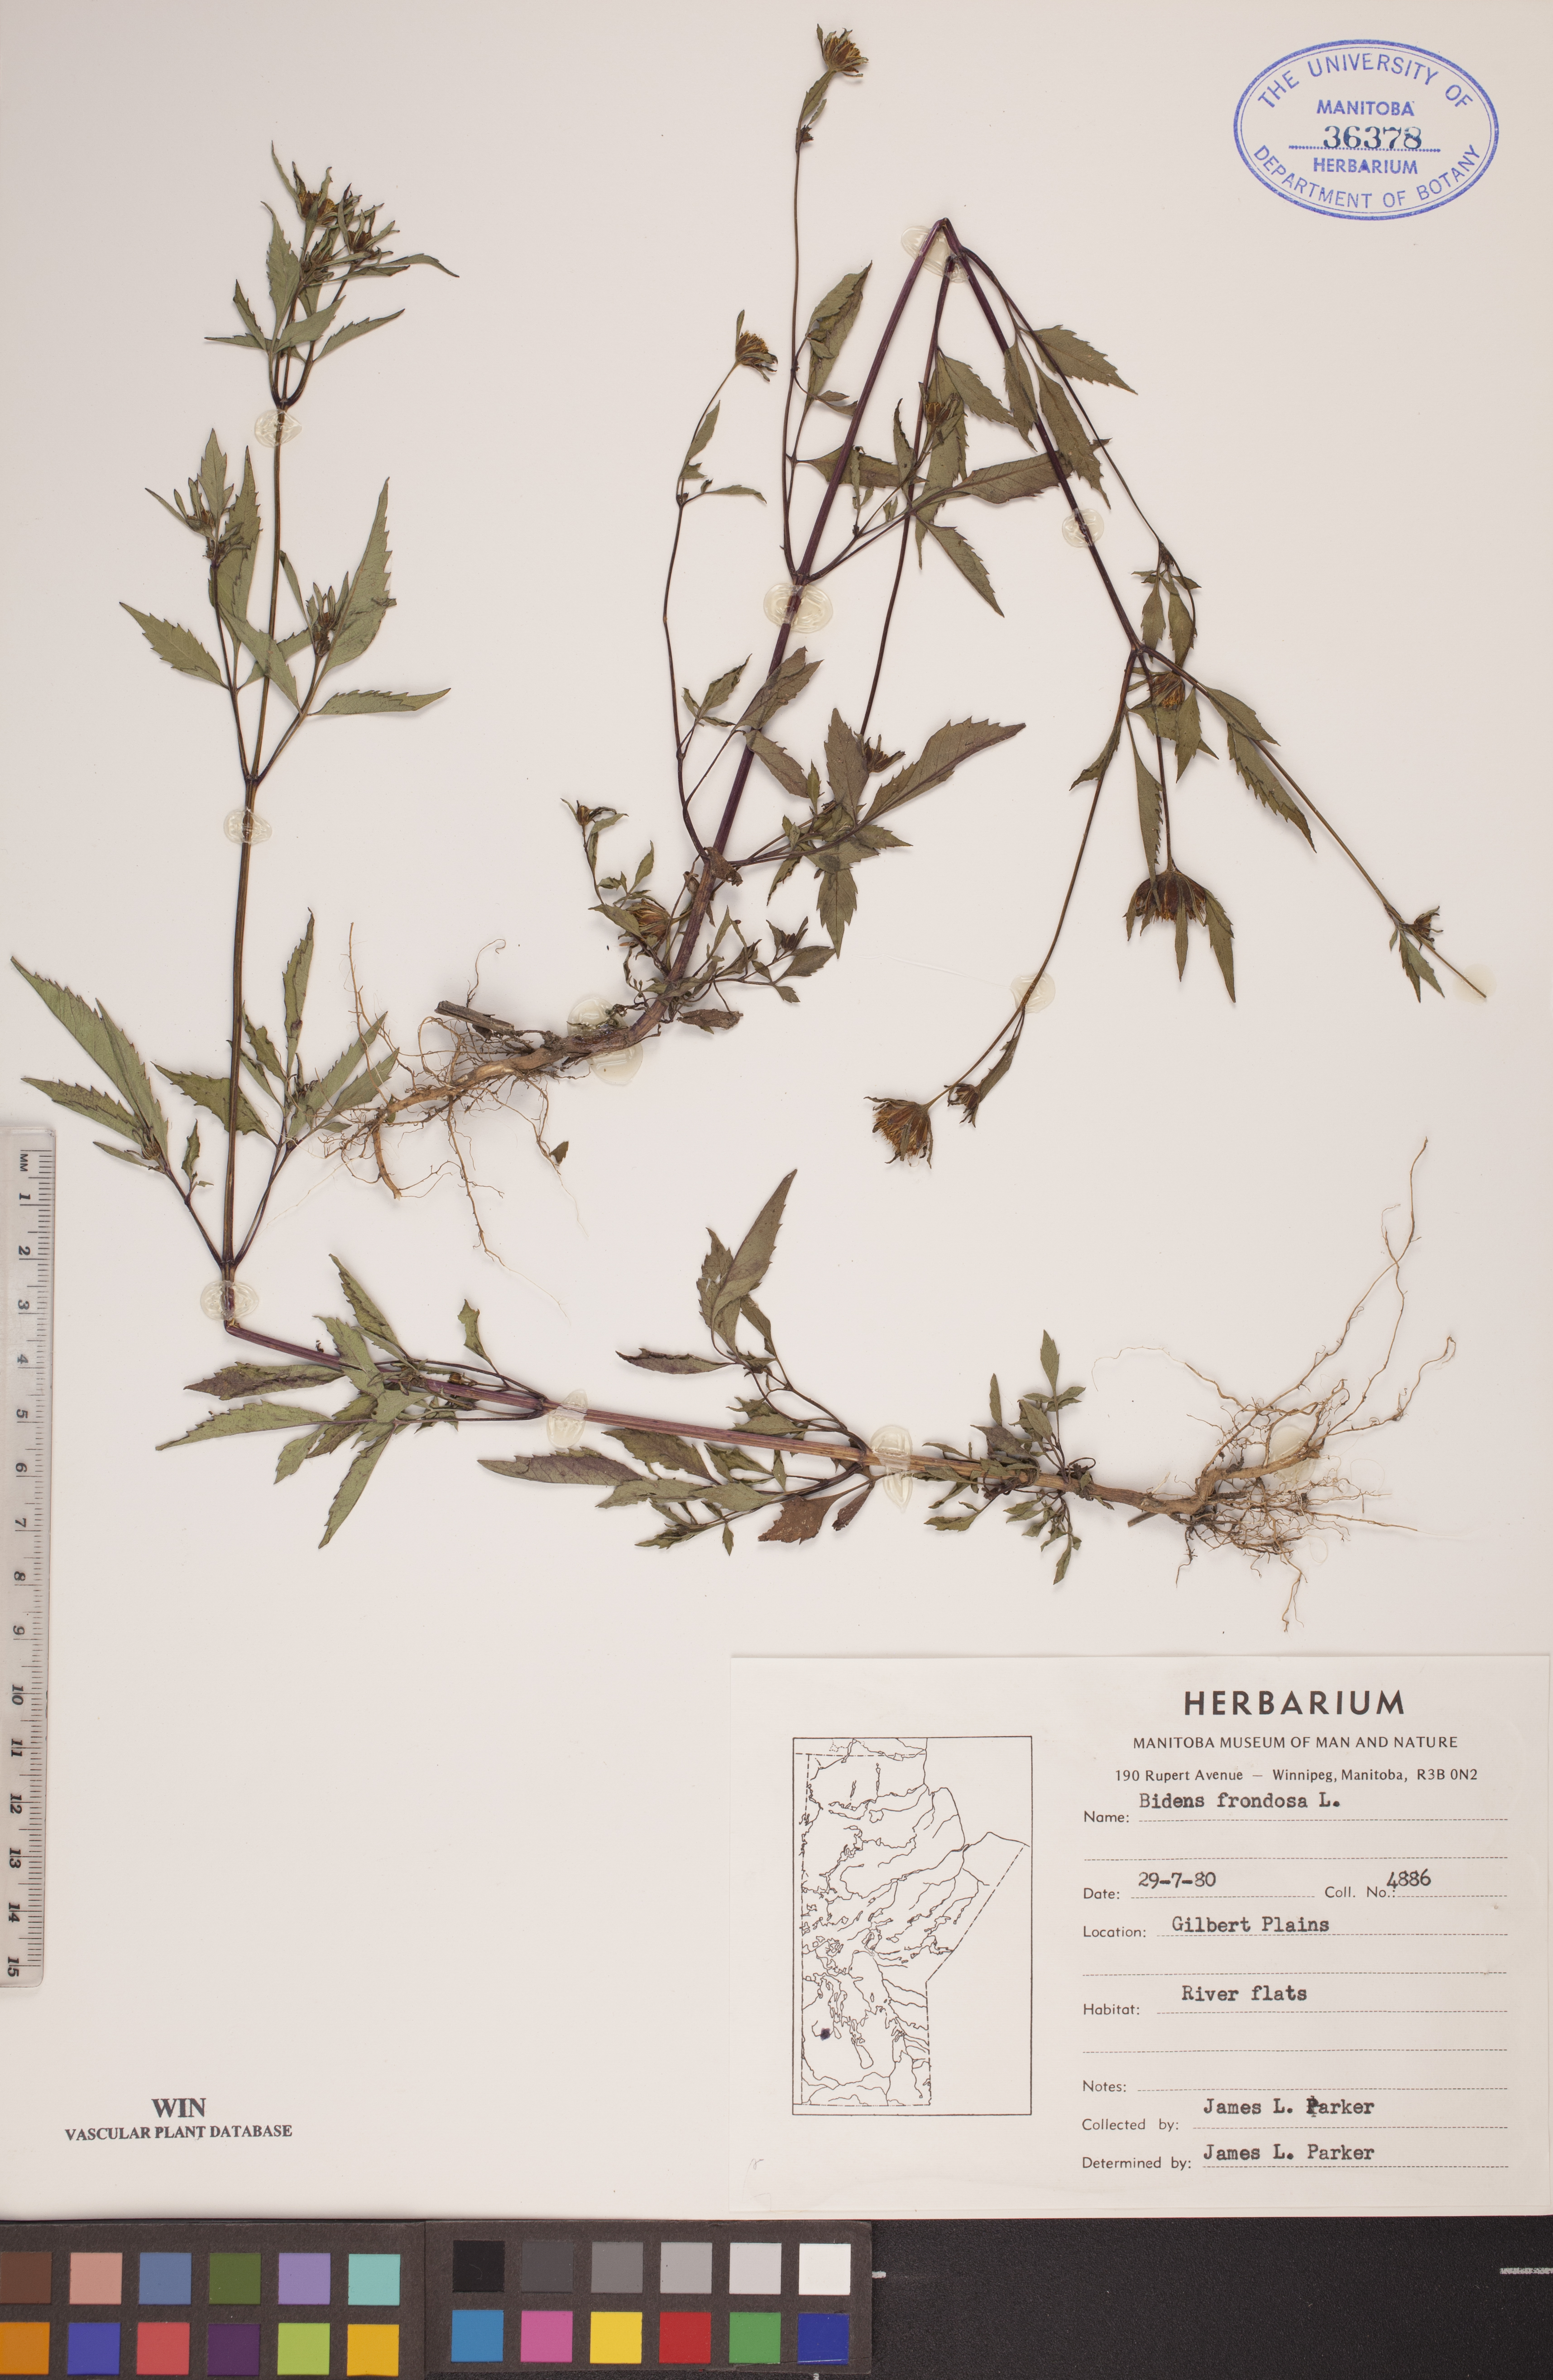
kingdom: Plantae
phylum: Tracheophyta
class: Magnoliopsida
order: Asterales
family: Asteraceae
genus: Bidens
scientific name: Bidens frondosa
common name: Beggarticks
